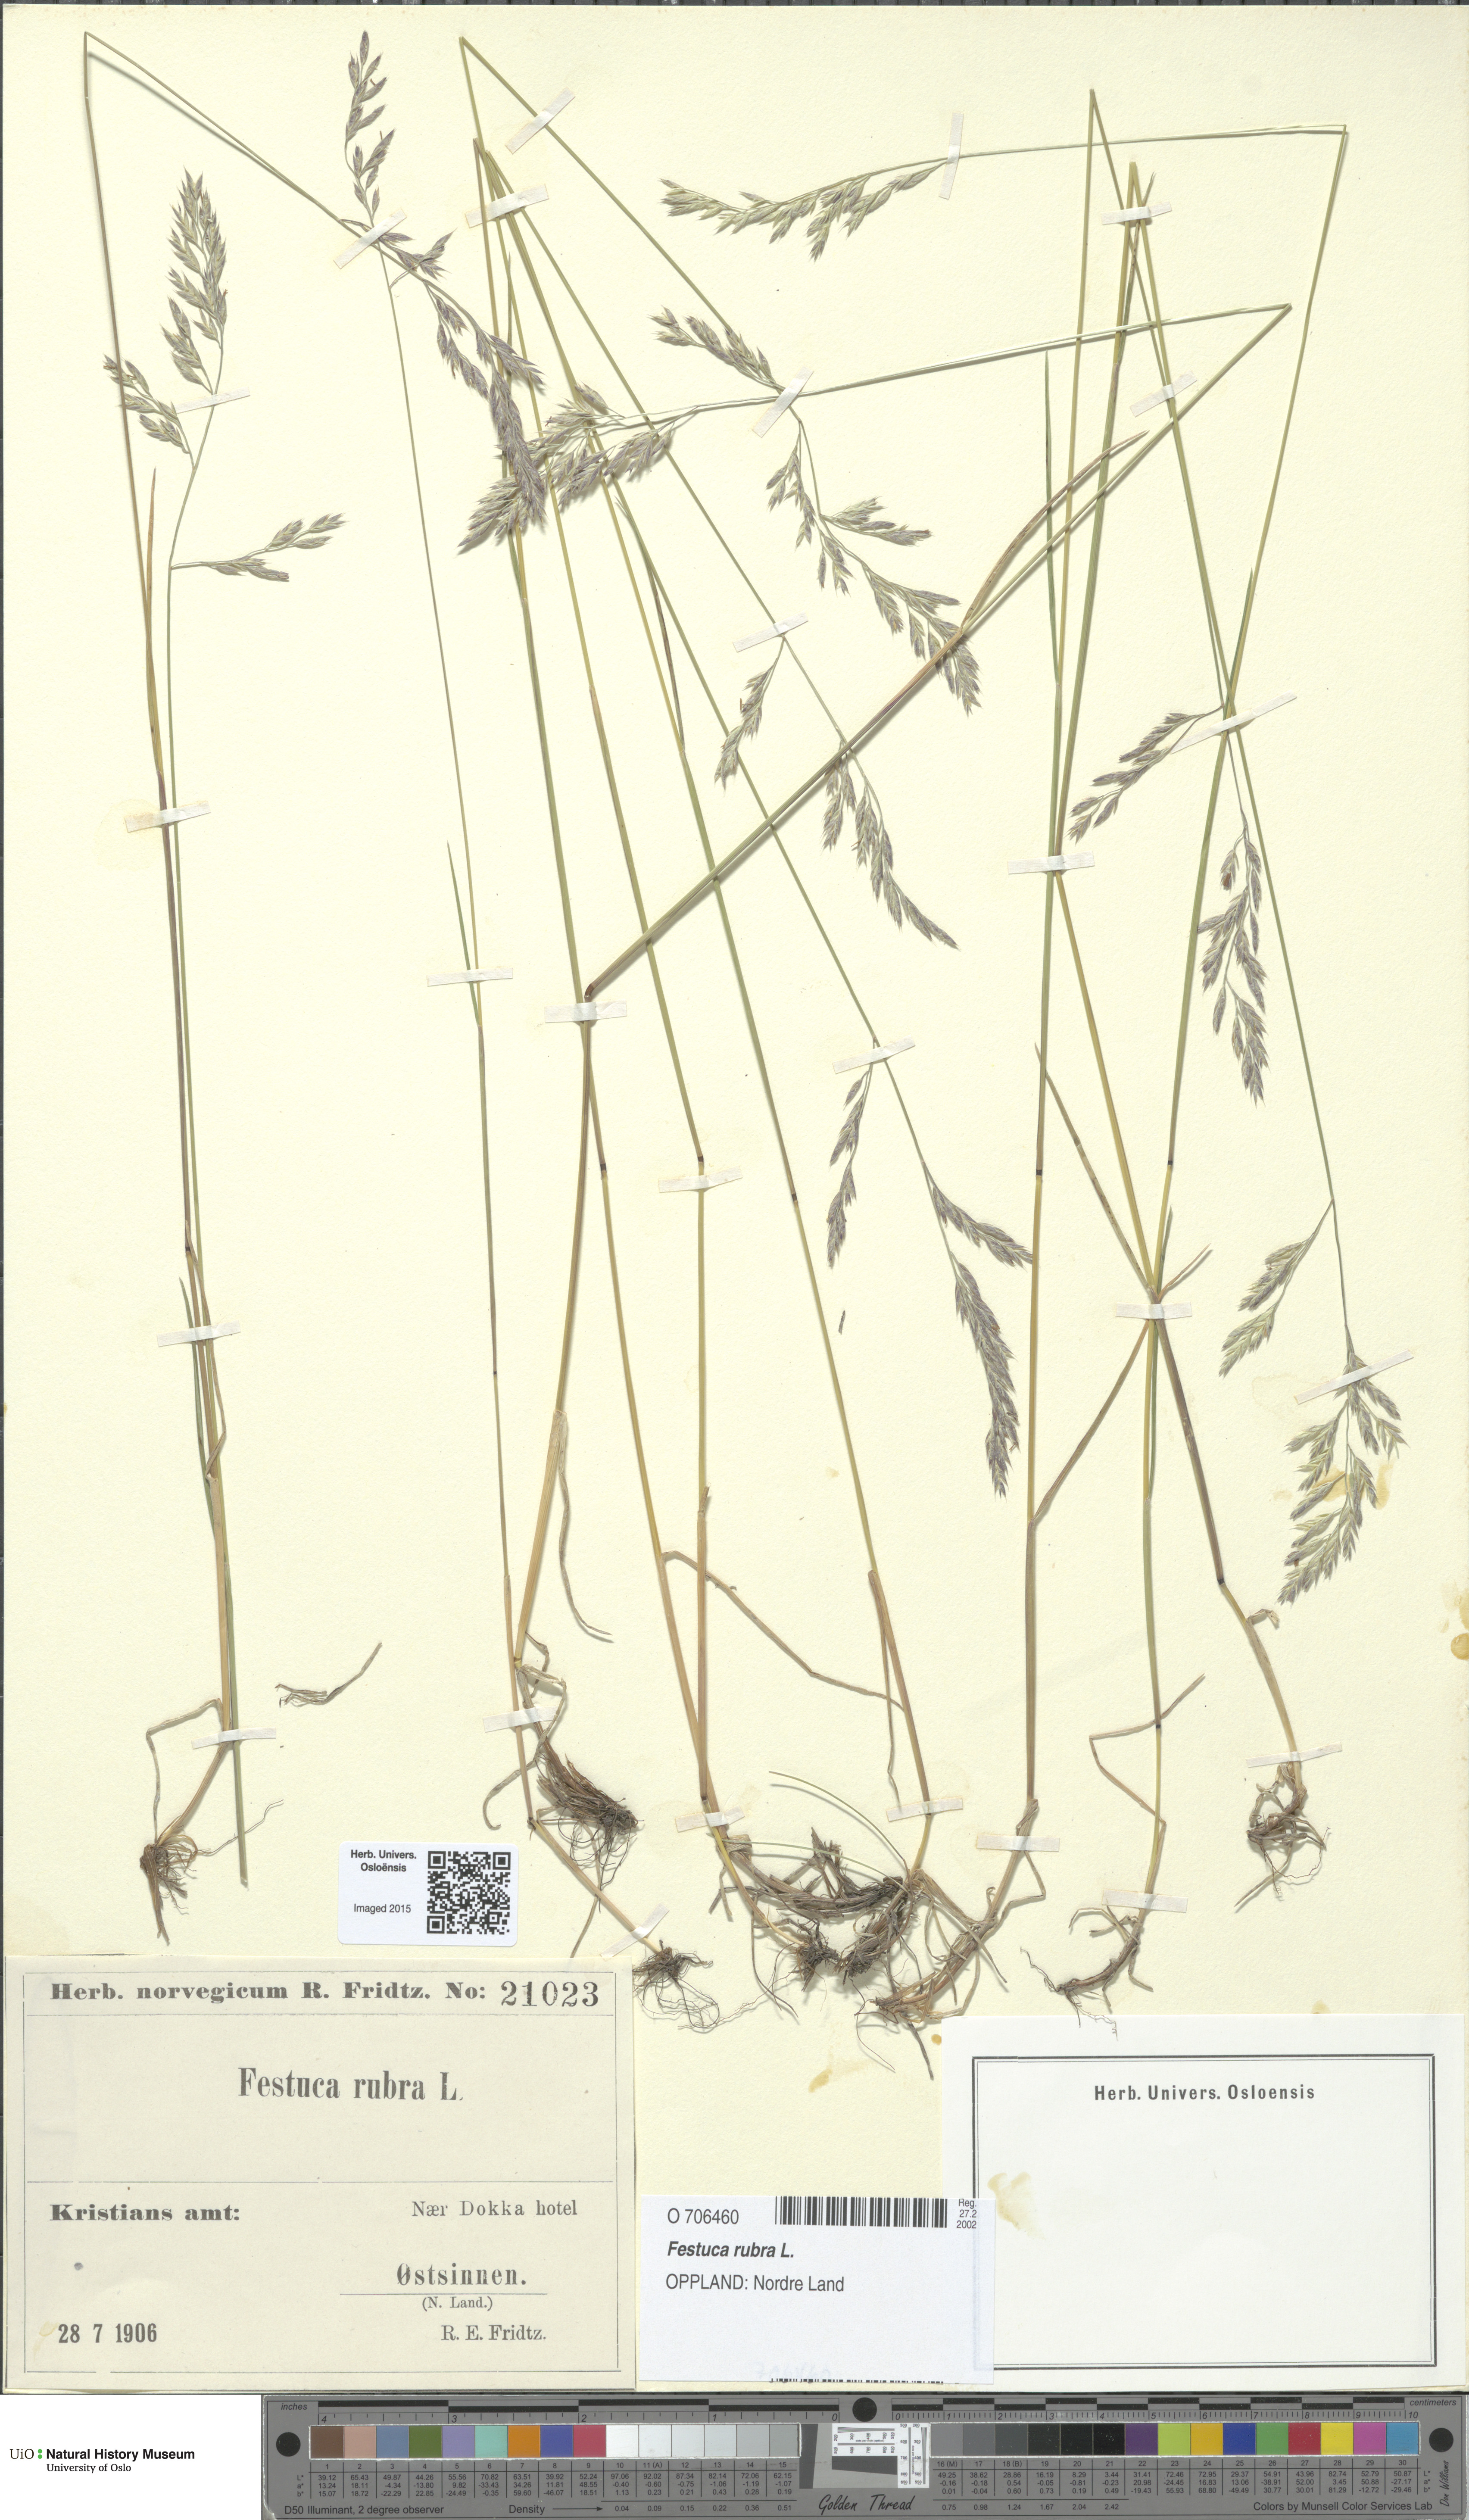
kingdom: Plantae
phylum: Tracheophyta
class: Liliopsida
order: Poales
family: Poaceae
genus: Festuca
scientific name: Festuca rubra
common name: Red fescue
